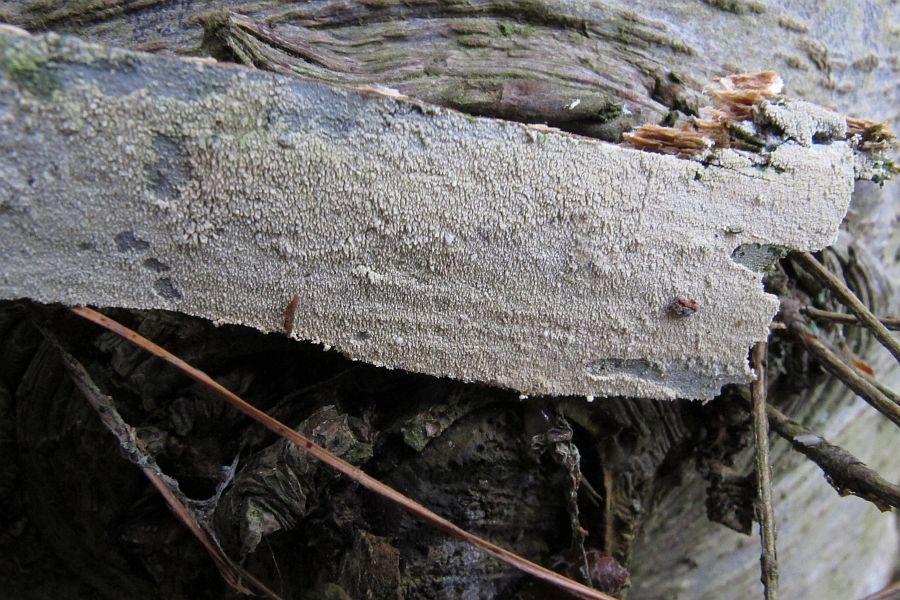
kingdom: Fungi
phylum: Basidiomycota
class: Agaricomycetes
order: Trechisporales
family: Sistotremataceae
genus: Trechispora
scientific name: Trechispora farinacea
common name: pigget vathinde
